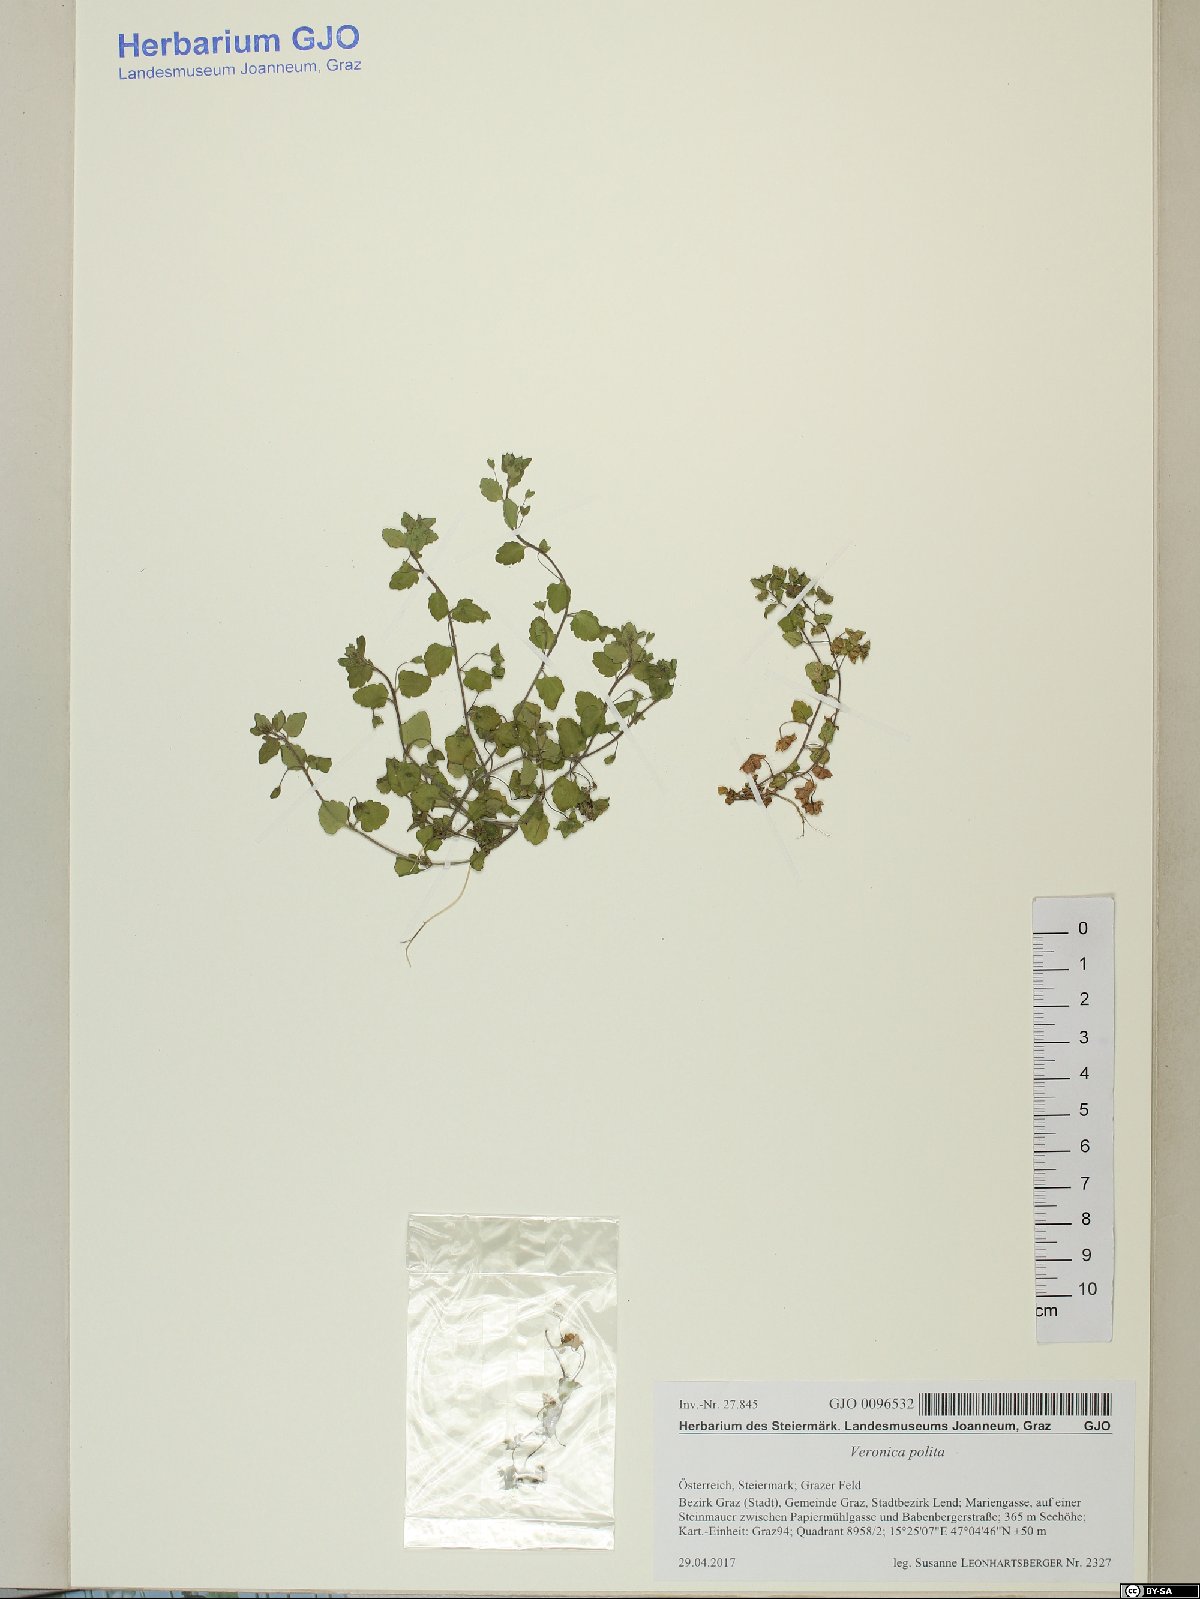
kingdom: Plantae
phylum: Tracheophyta
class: Magnoliopsida
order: Lamiales
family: Plantaginaceae
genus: Veronica
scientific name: Veronica polita
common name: Grey field-speedwell
